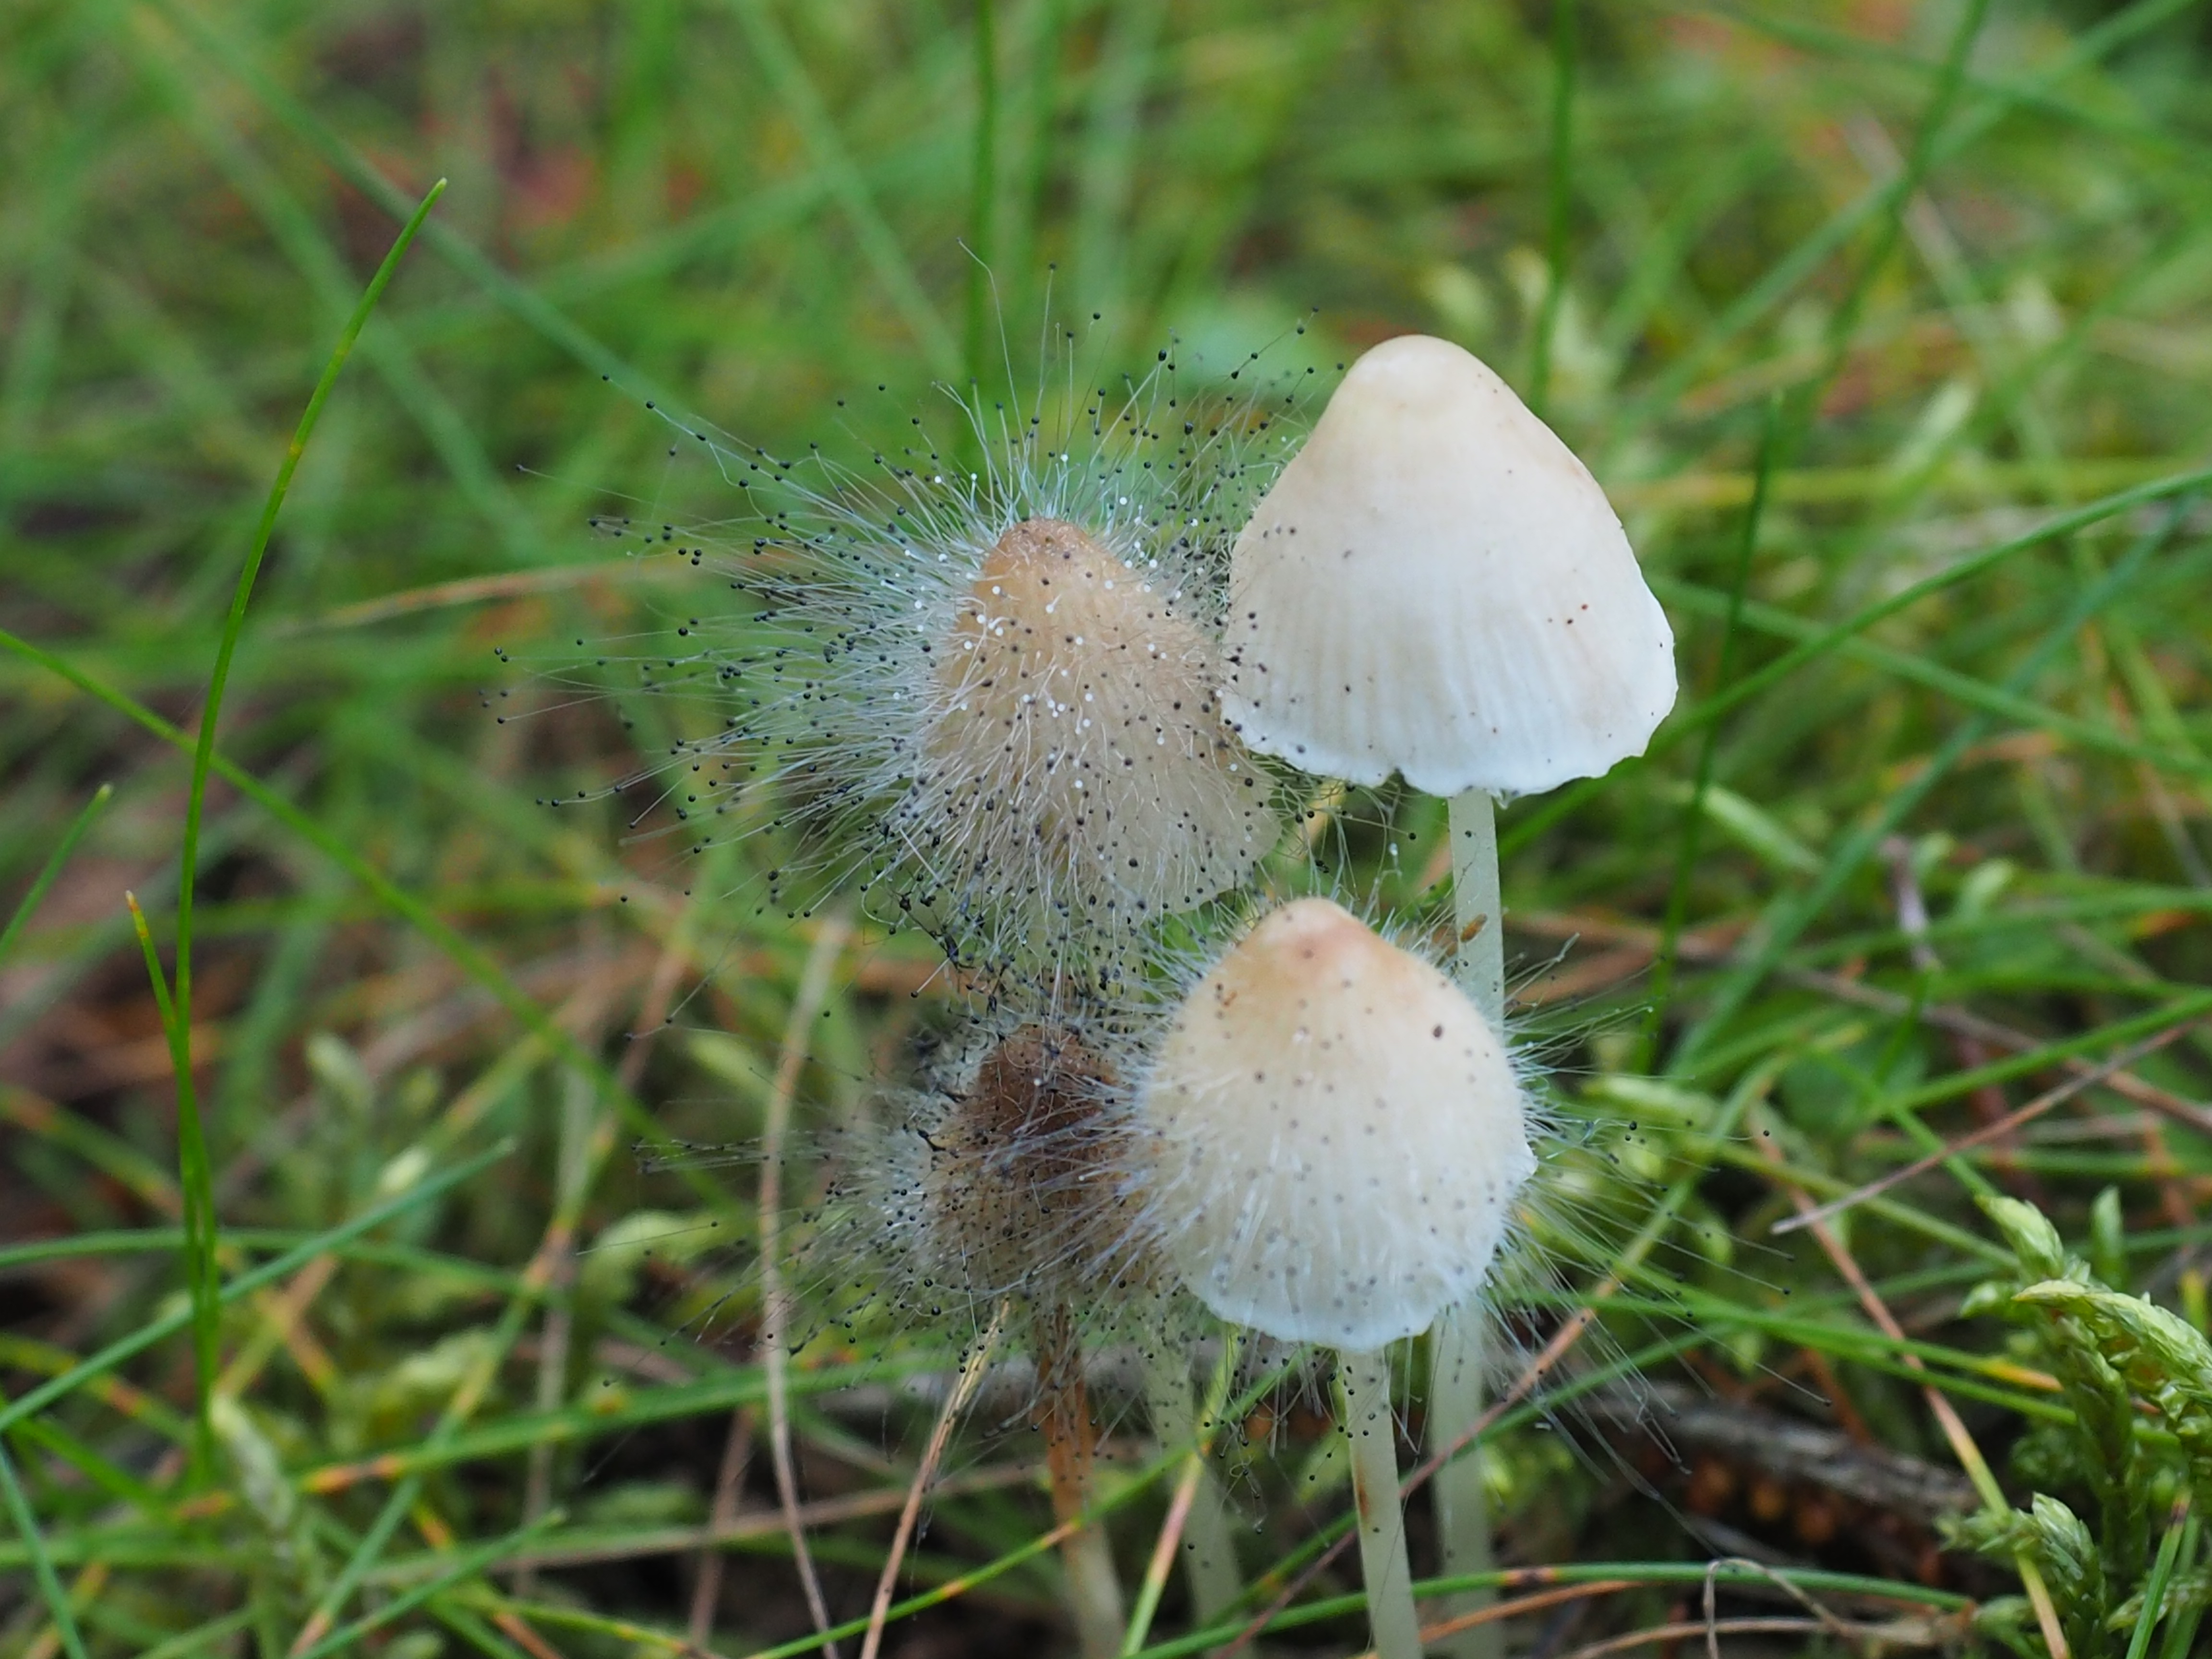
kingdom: Fungi
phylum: Mucoromycota
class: Mucoromycetes
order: Mucorales
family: Phycomycetaceae
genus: Spinellus
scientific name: Spinellus fusiger
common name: Bonnet mould
